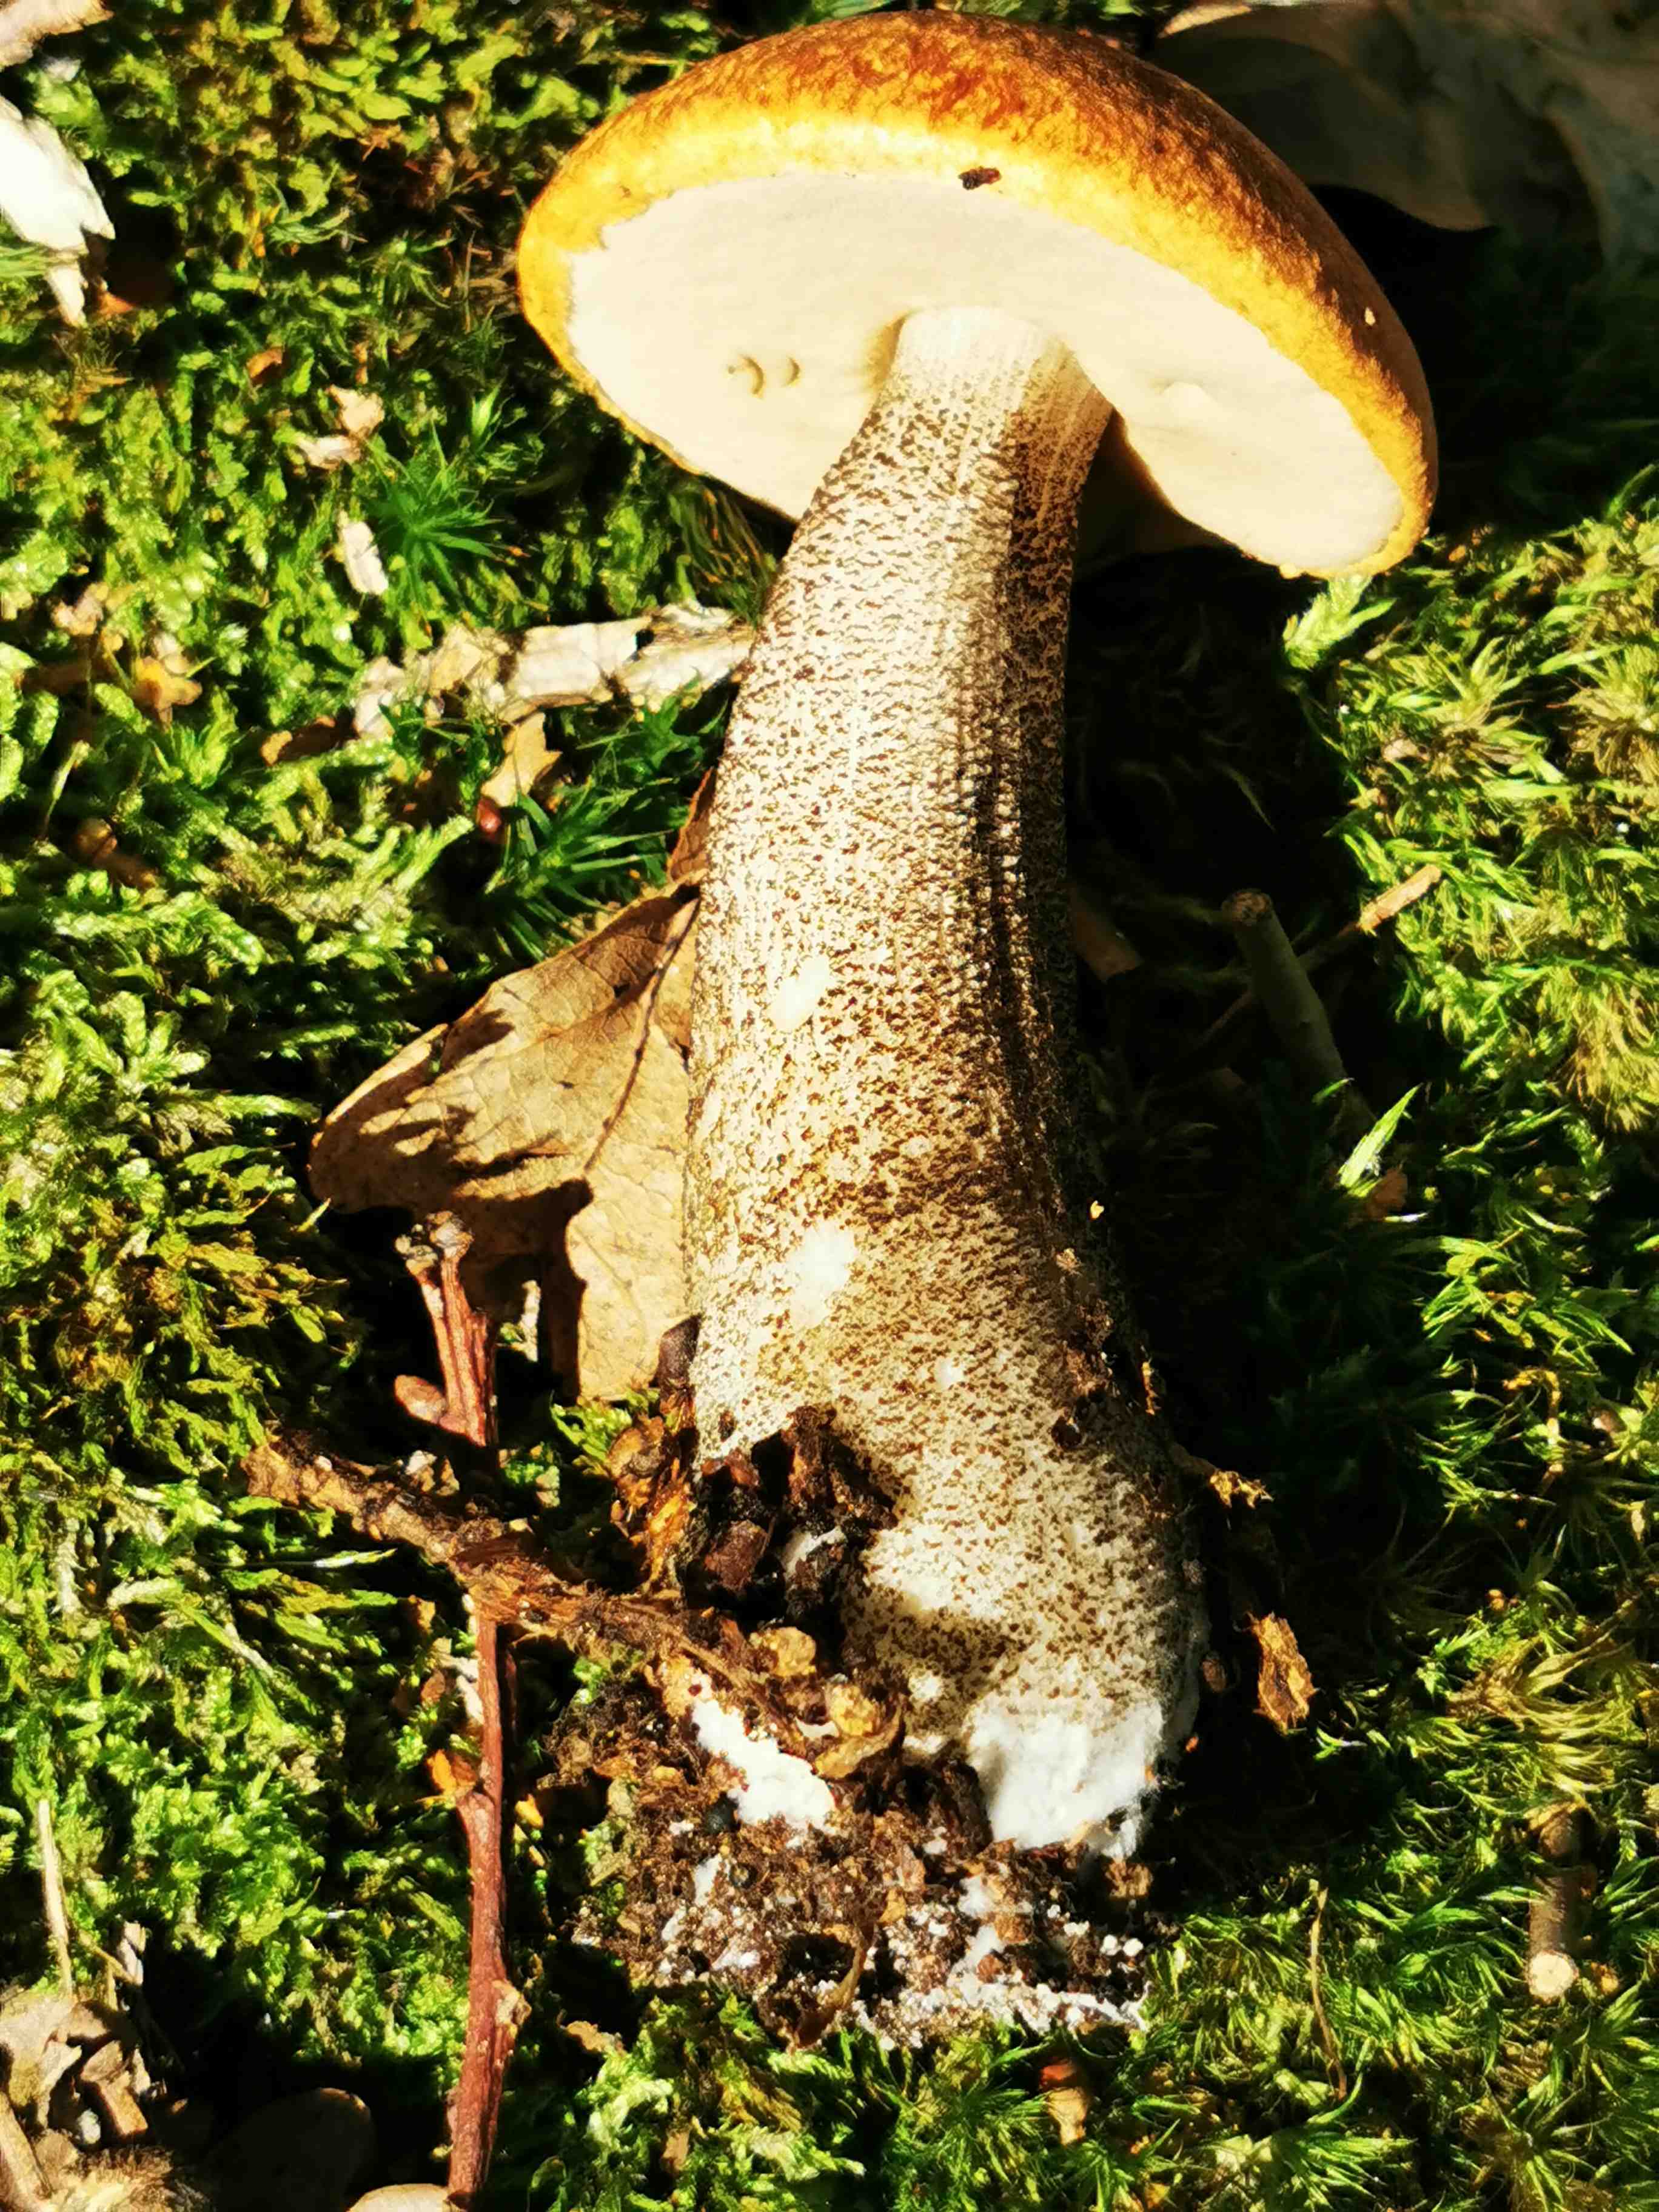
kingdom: Fungi
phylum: Basidiomycota
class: Agaricomycetes
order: Boletales
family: Boletaceae
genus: Leccinum
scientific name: Leccinum
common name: skælrørhat
